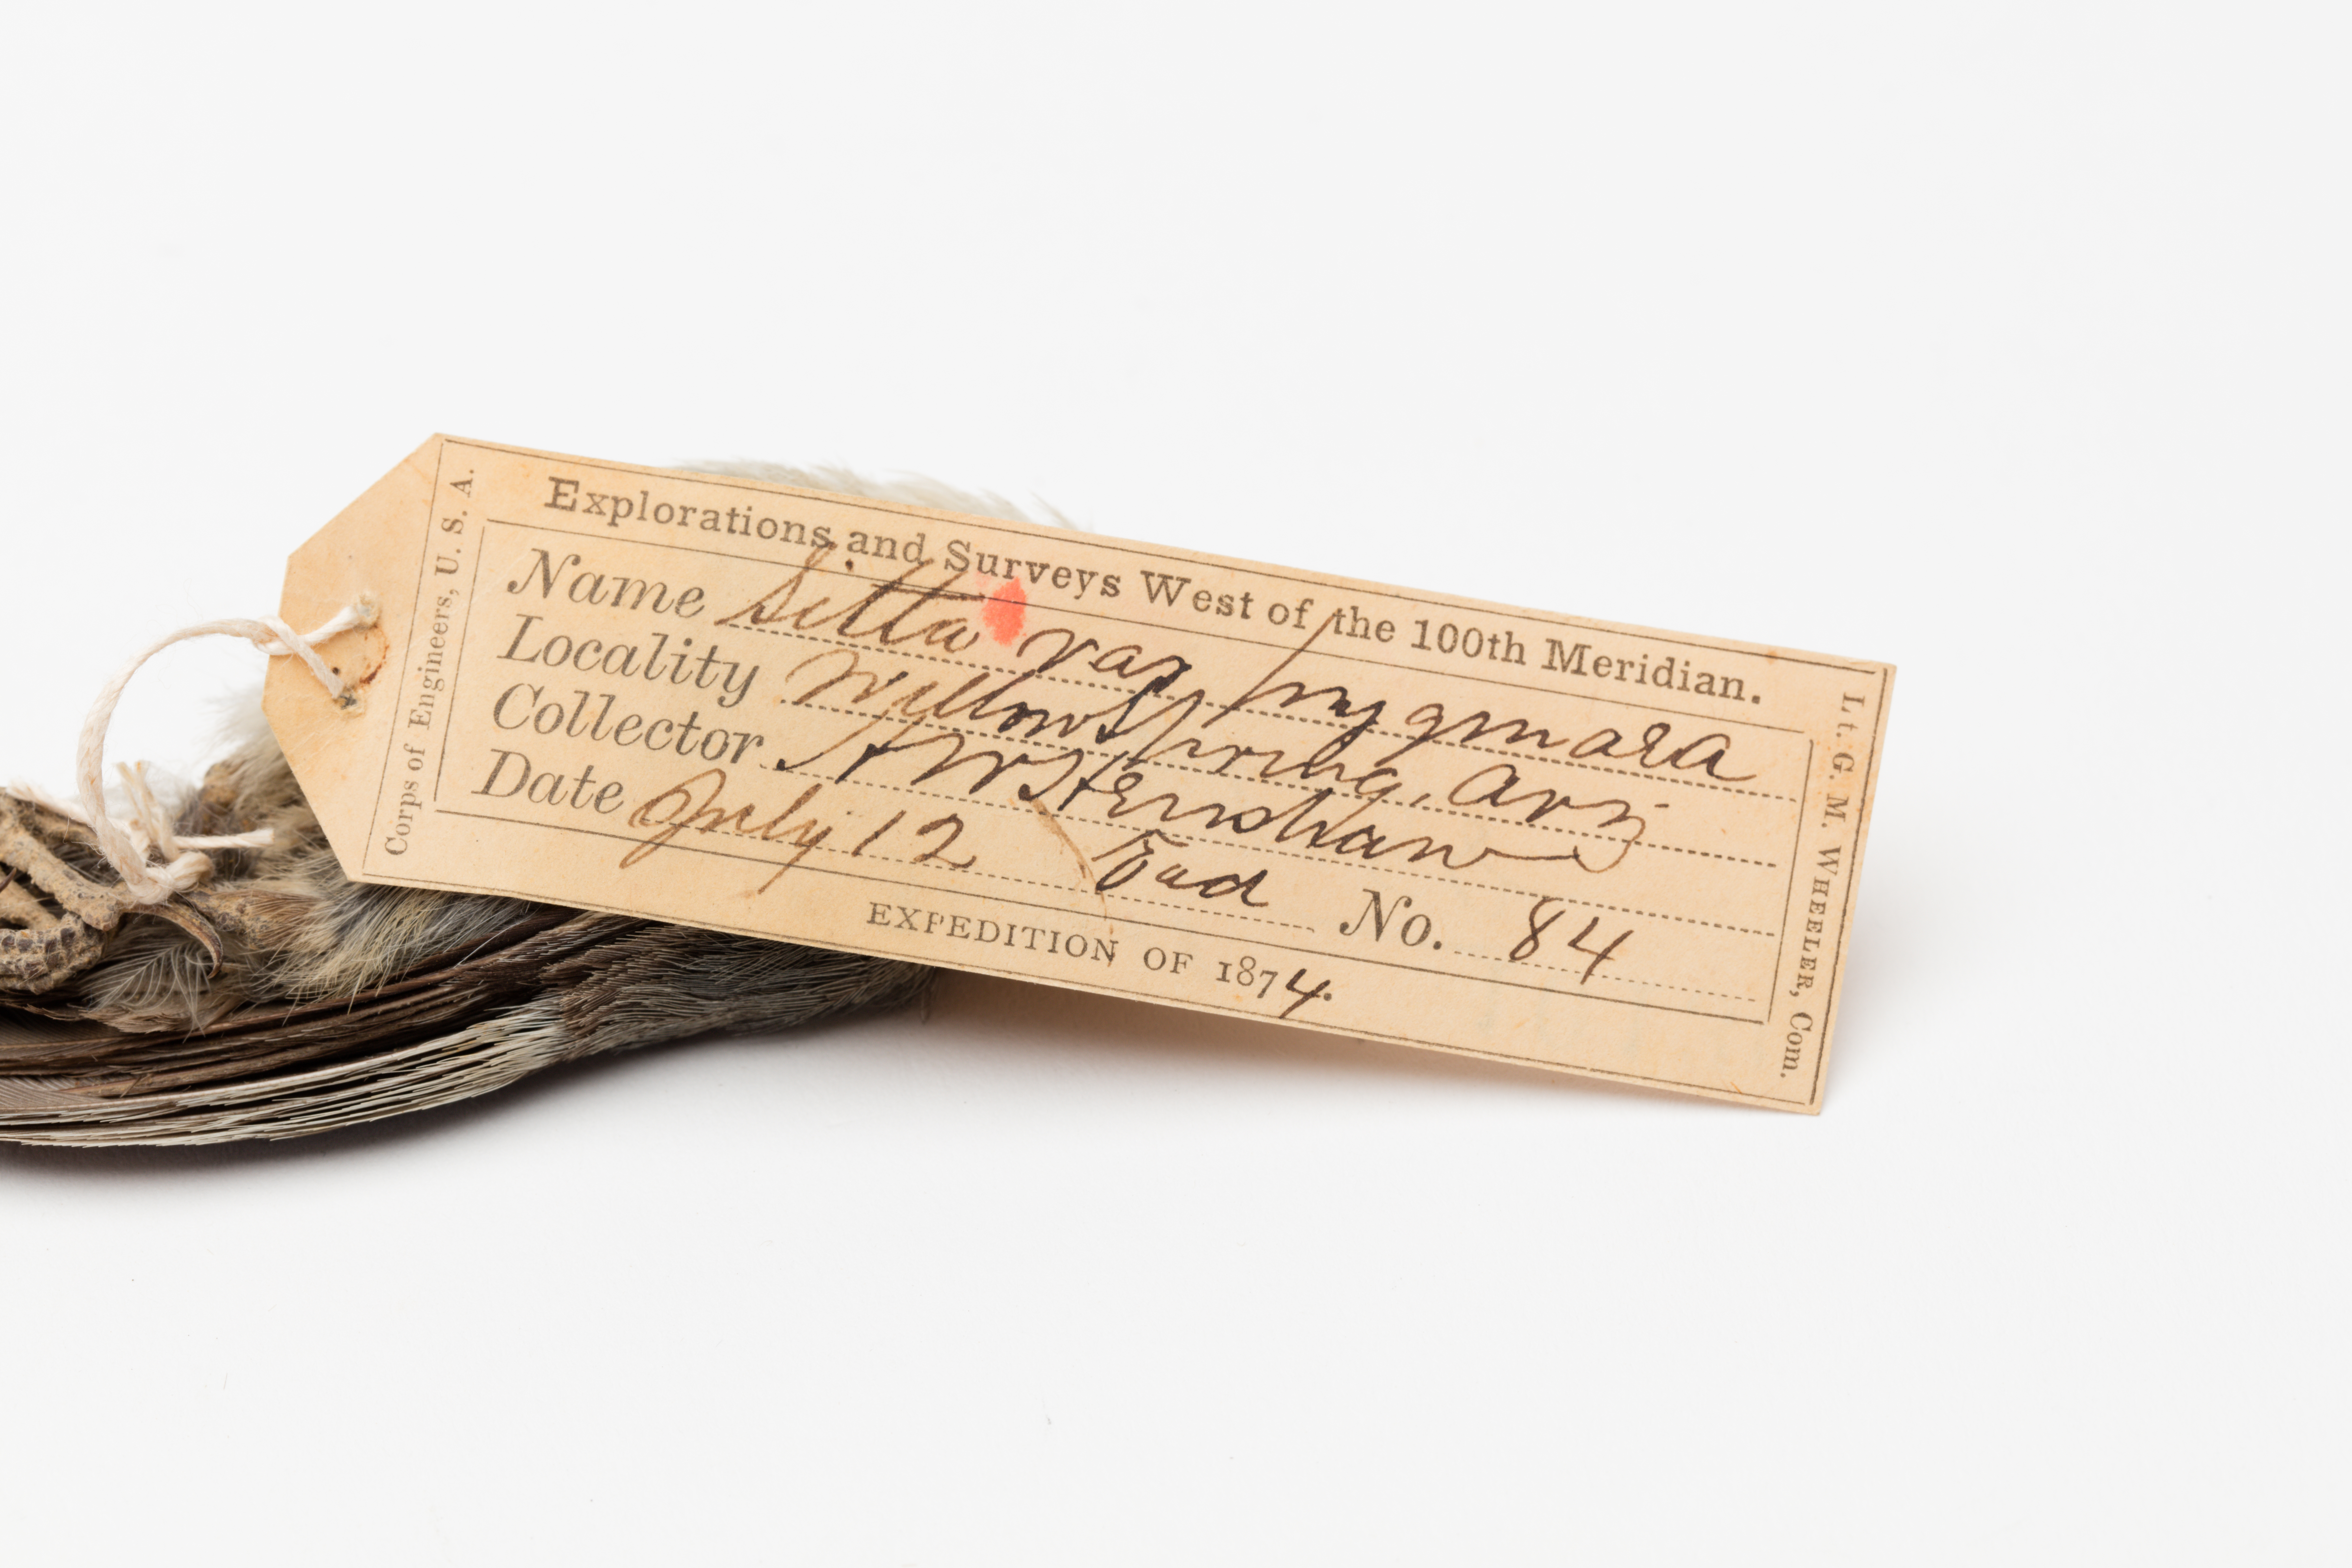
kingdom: Animalia
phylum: Chordata
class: Aves
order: Passeriformes
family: Sittidae
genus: Sitta
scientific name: Sitta pygmaea
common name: Pygmy nuthatch
